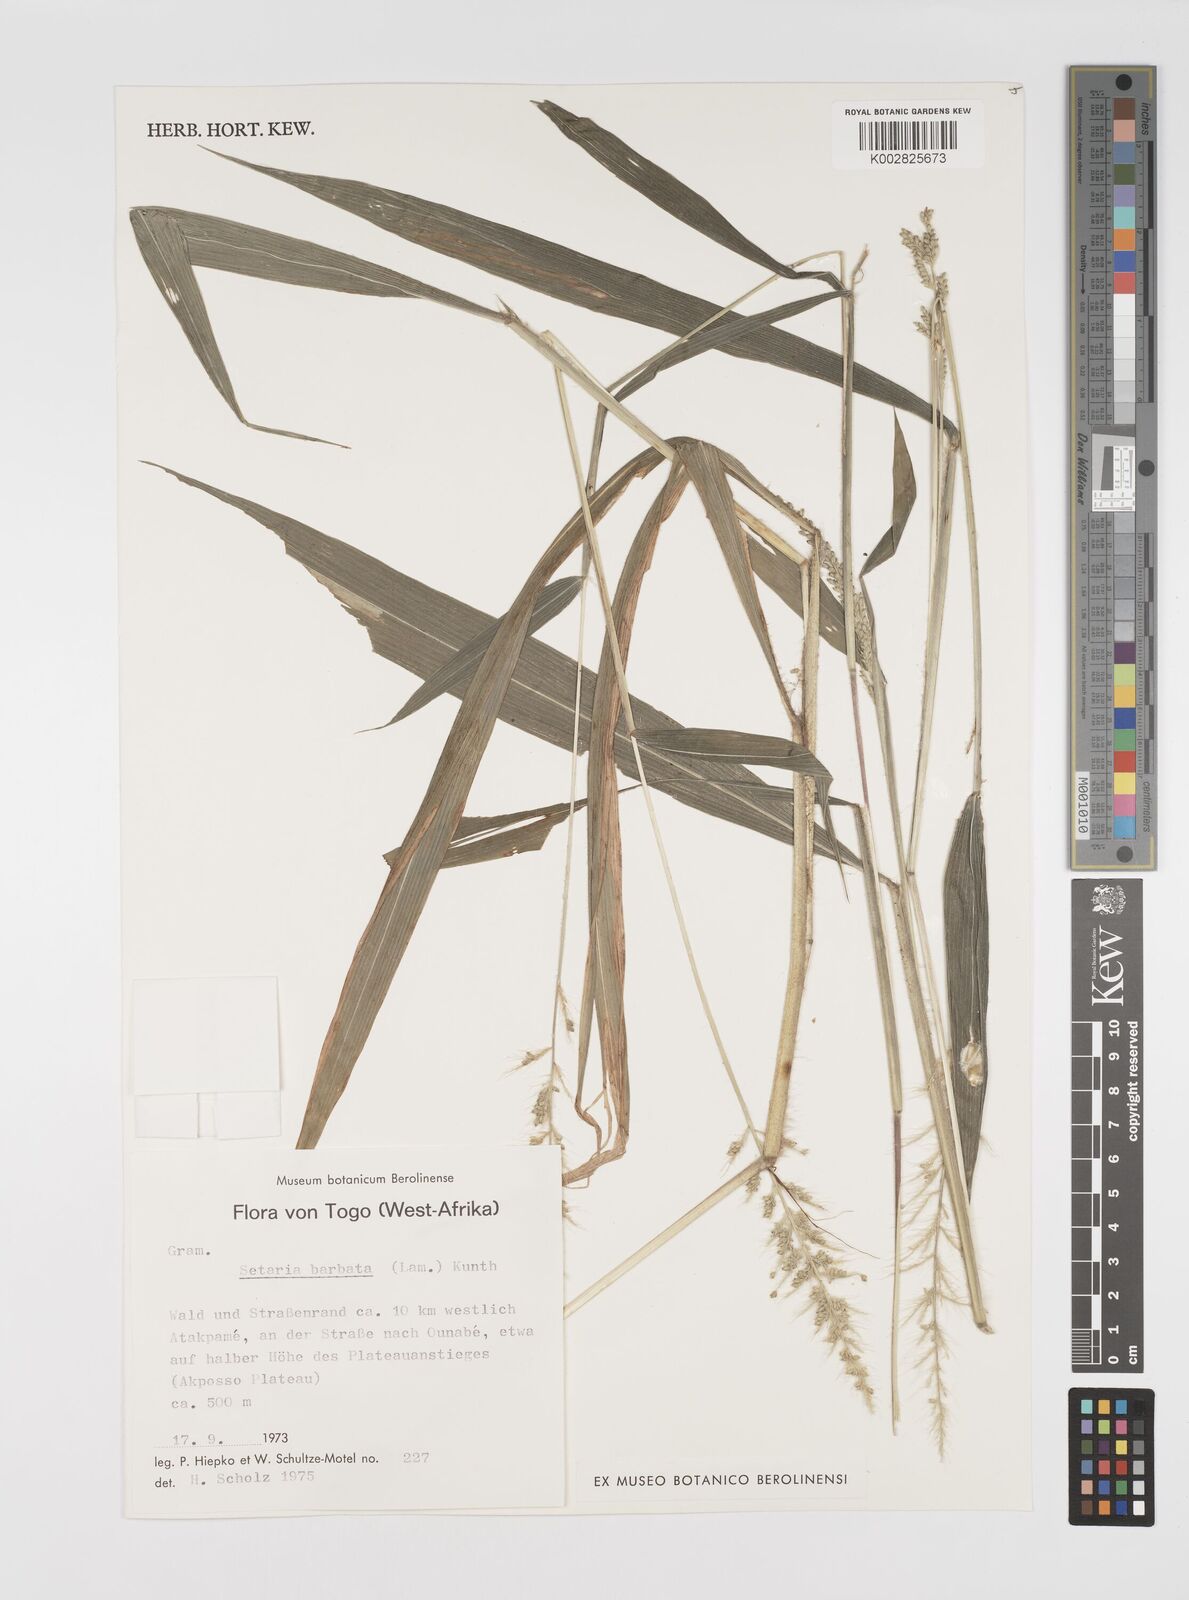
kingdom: Plantae
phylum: Tracheophyta
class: Liliopsida
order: Poales
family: Poaceae
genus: Setaria
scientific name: Setaria barbata
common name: East indian bristlegrass
